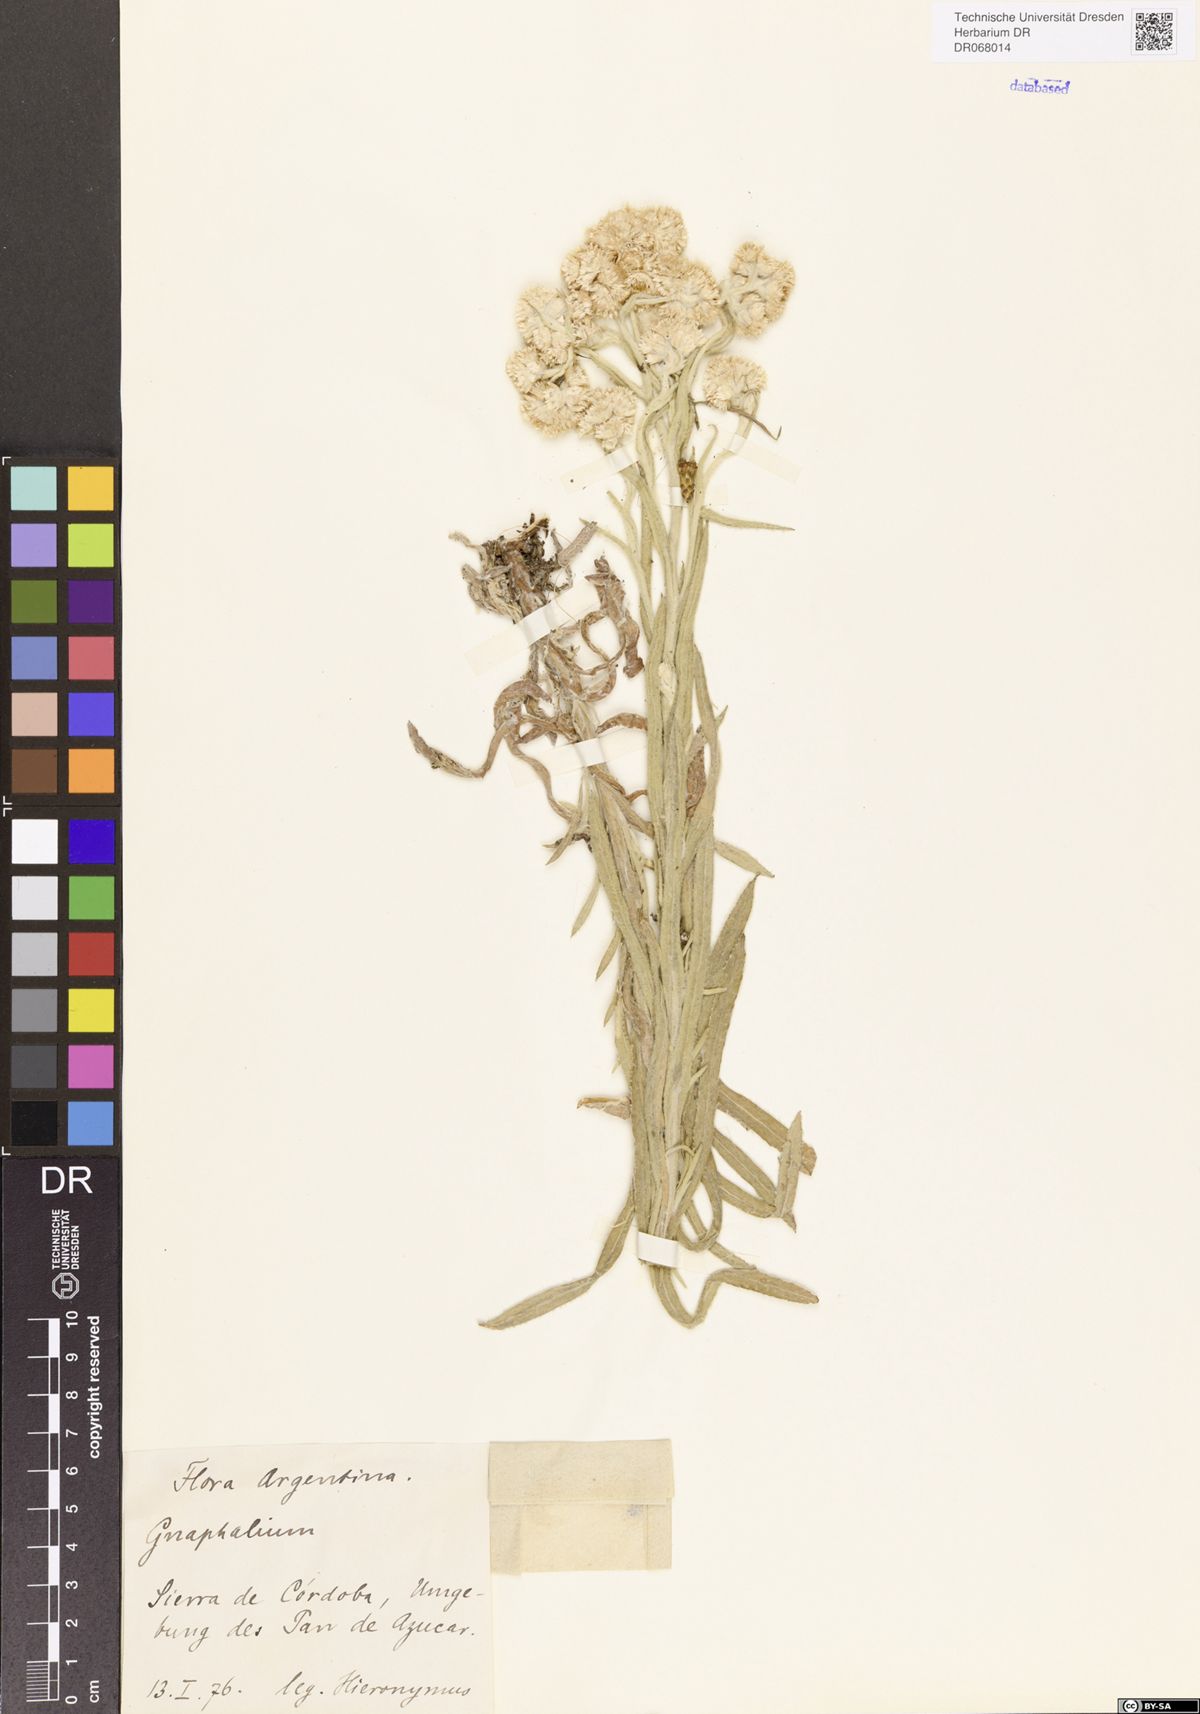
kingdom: Plantae
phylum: Tracheophyta
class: Magnoliopsida
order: Asterales
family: Asteraceae
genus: Gnaphalium
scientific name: Gnaphalium
